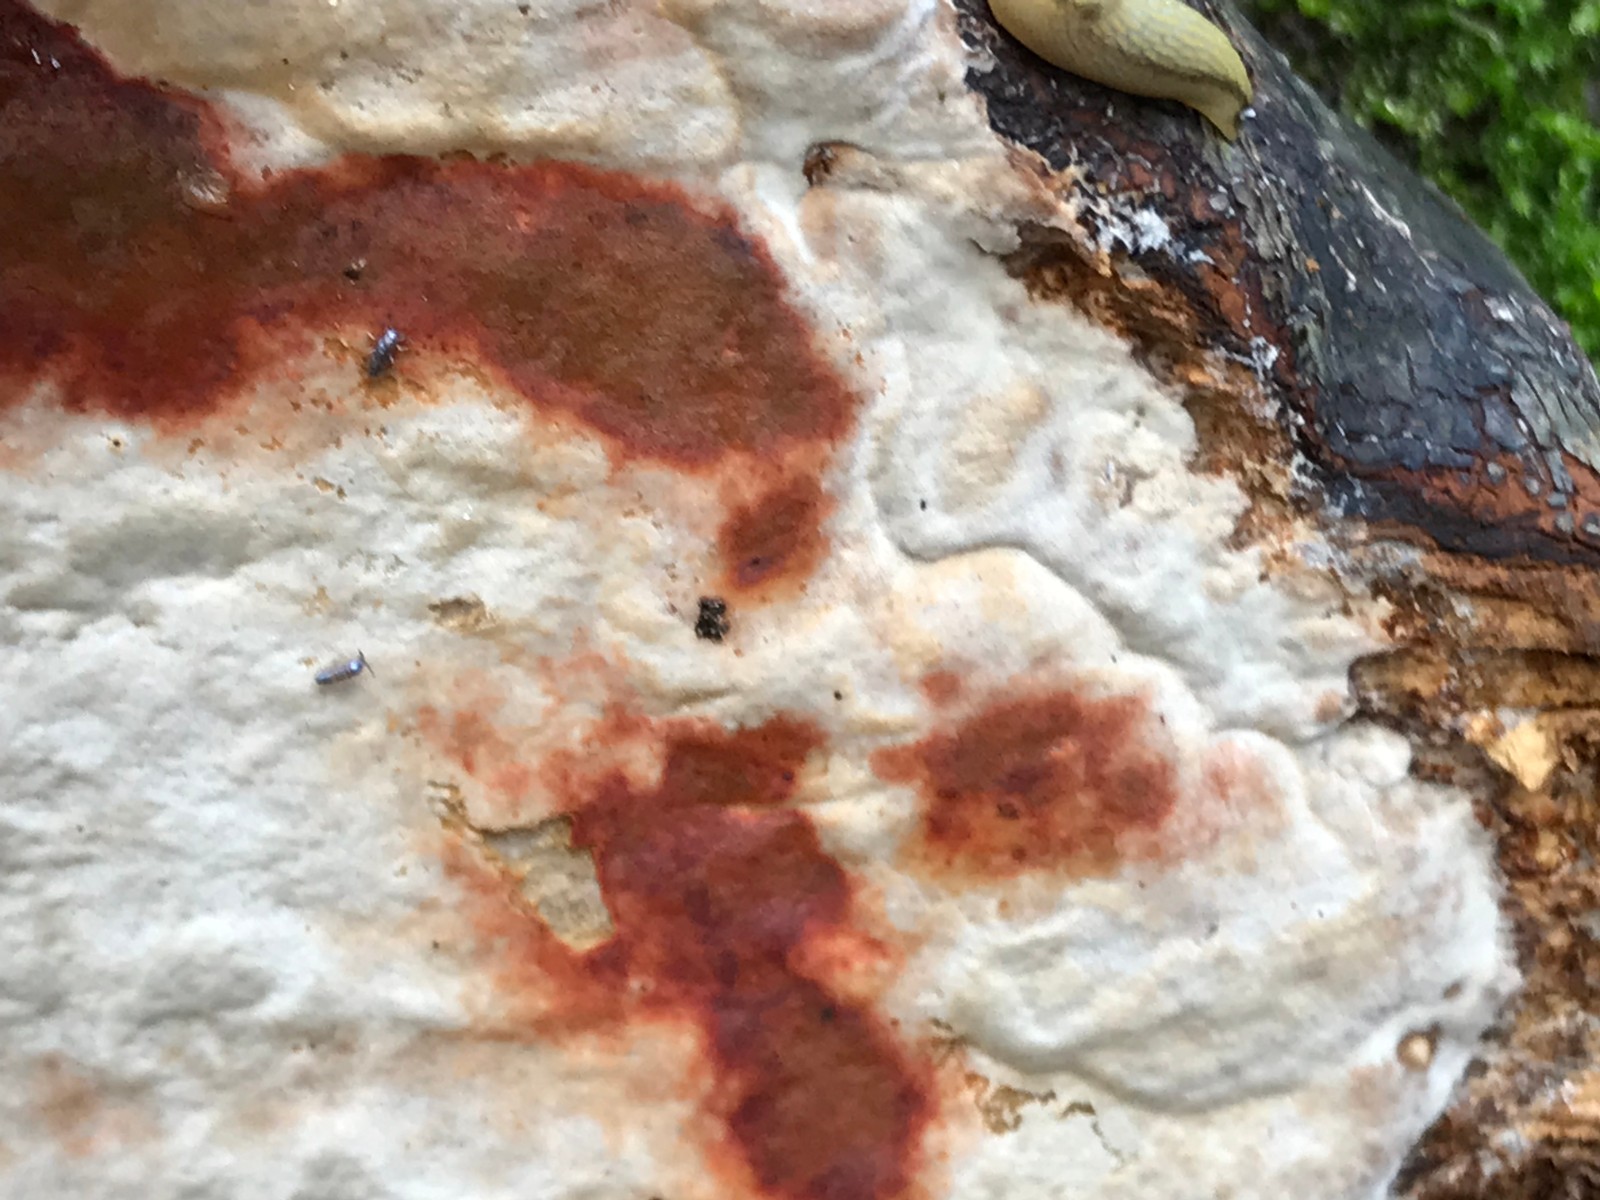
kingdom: Fungi
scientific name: Fungi
